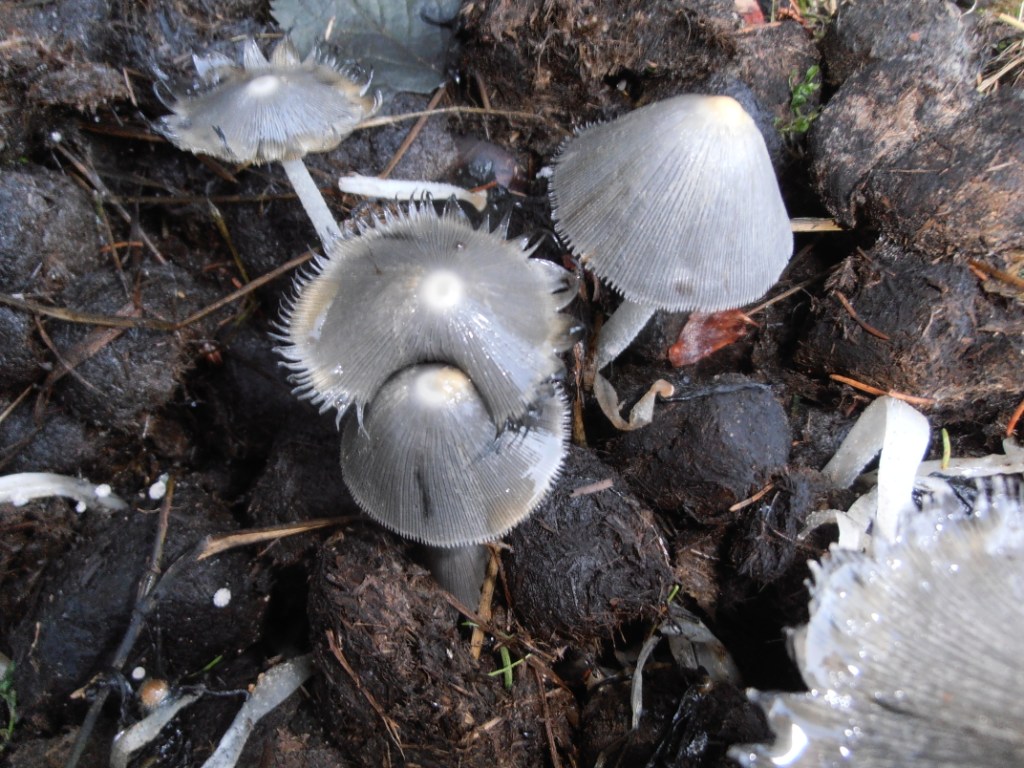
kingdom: Fungi
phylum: Basidiomycota
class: Agaricomycetes
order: Agaricales
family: Psathyrellaceae
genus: Coprinopsis
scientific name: Coprinopsis cinerea
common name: mødding-blækhat
